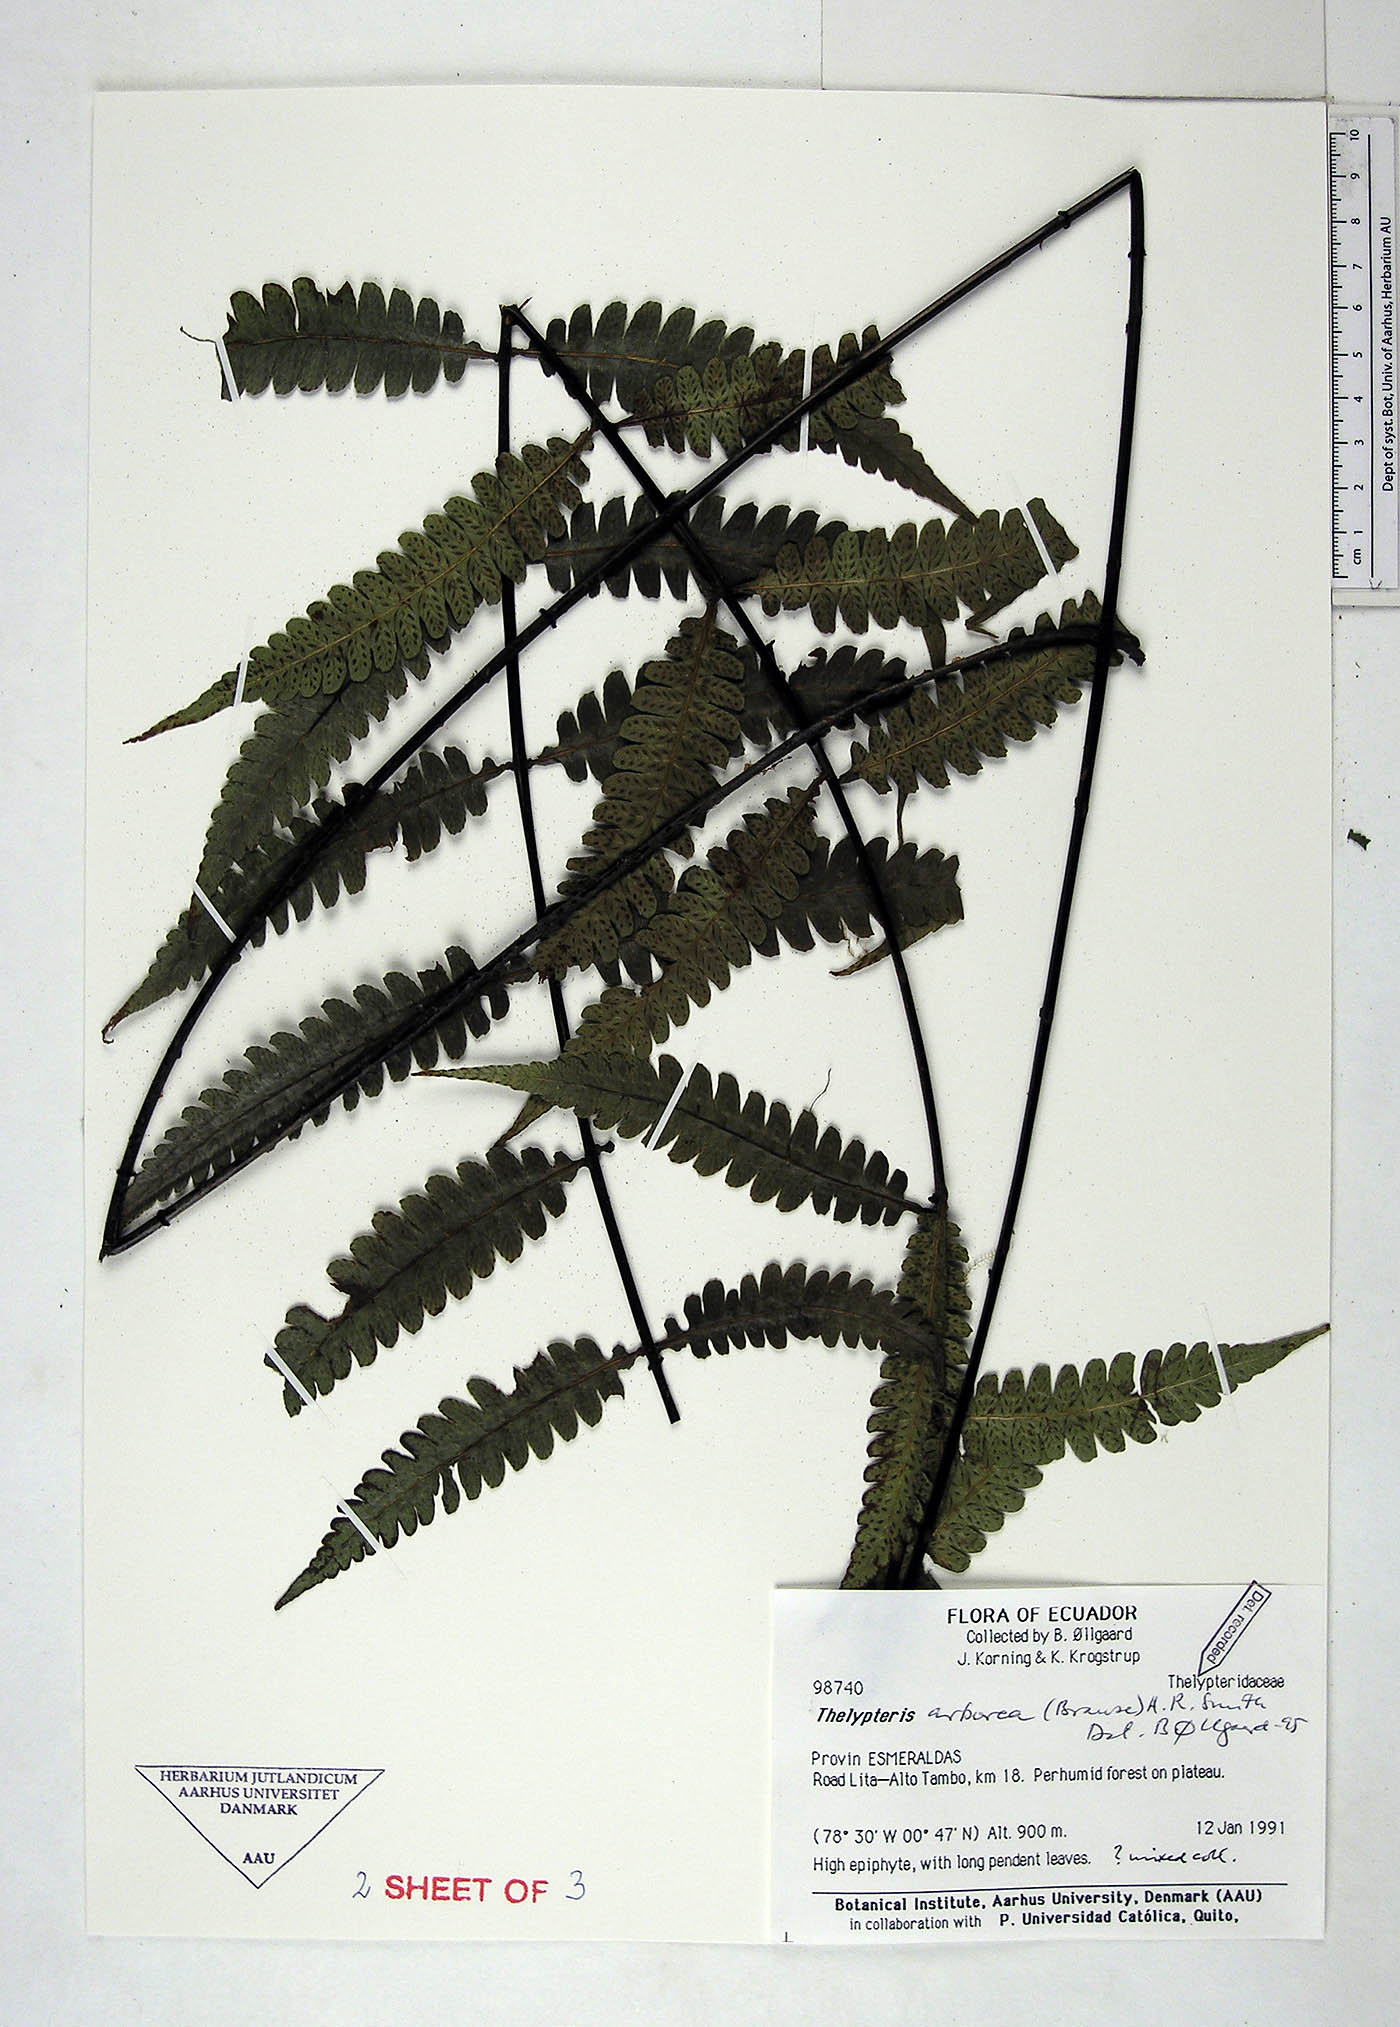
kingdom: Plantae
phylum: Tracheophyta
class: Polypodiopsida
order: Polypodiales
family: Thelypteridaceae
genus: Amauropelta
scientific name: Amauropelta arborea
